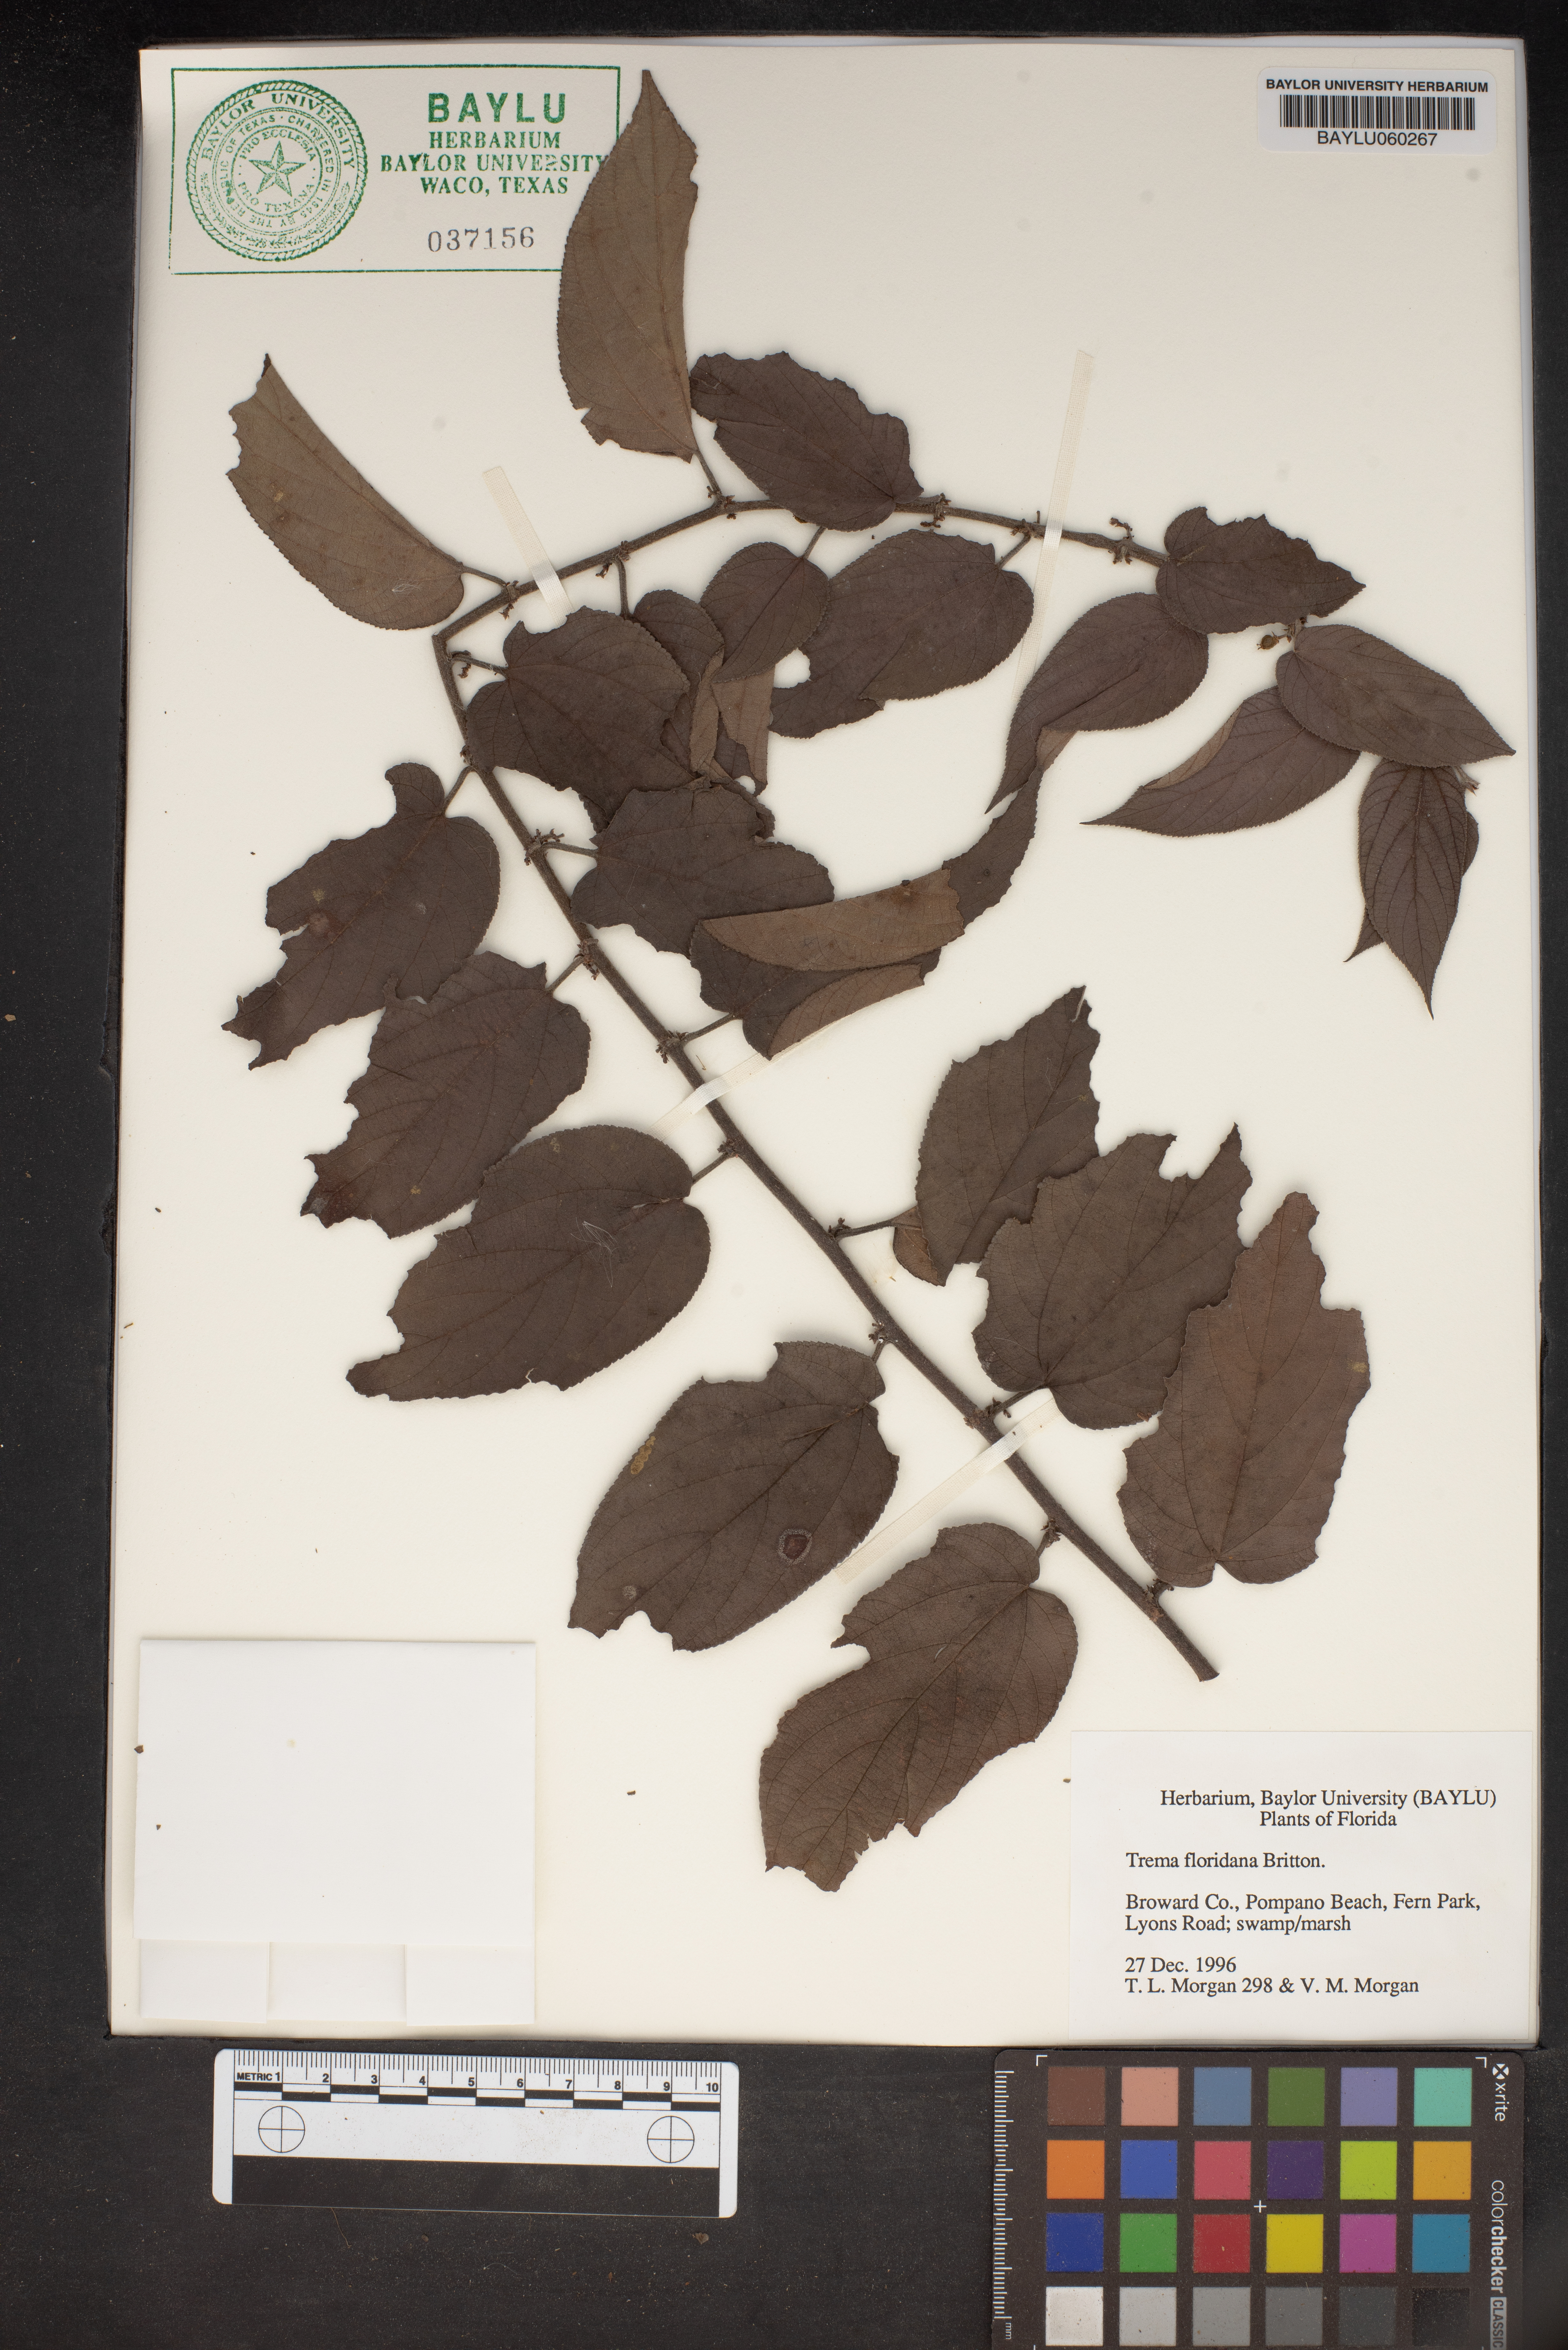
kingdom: Plantae
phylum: Tracheophyta
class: Magnoliopsida
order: Rosales
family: Cannabaceae
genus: Trema
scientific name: Trema micranthum
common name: Jamaican nettletree
